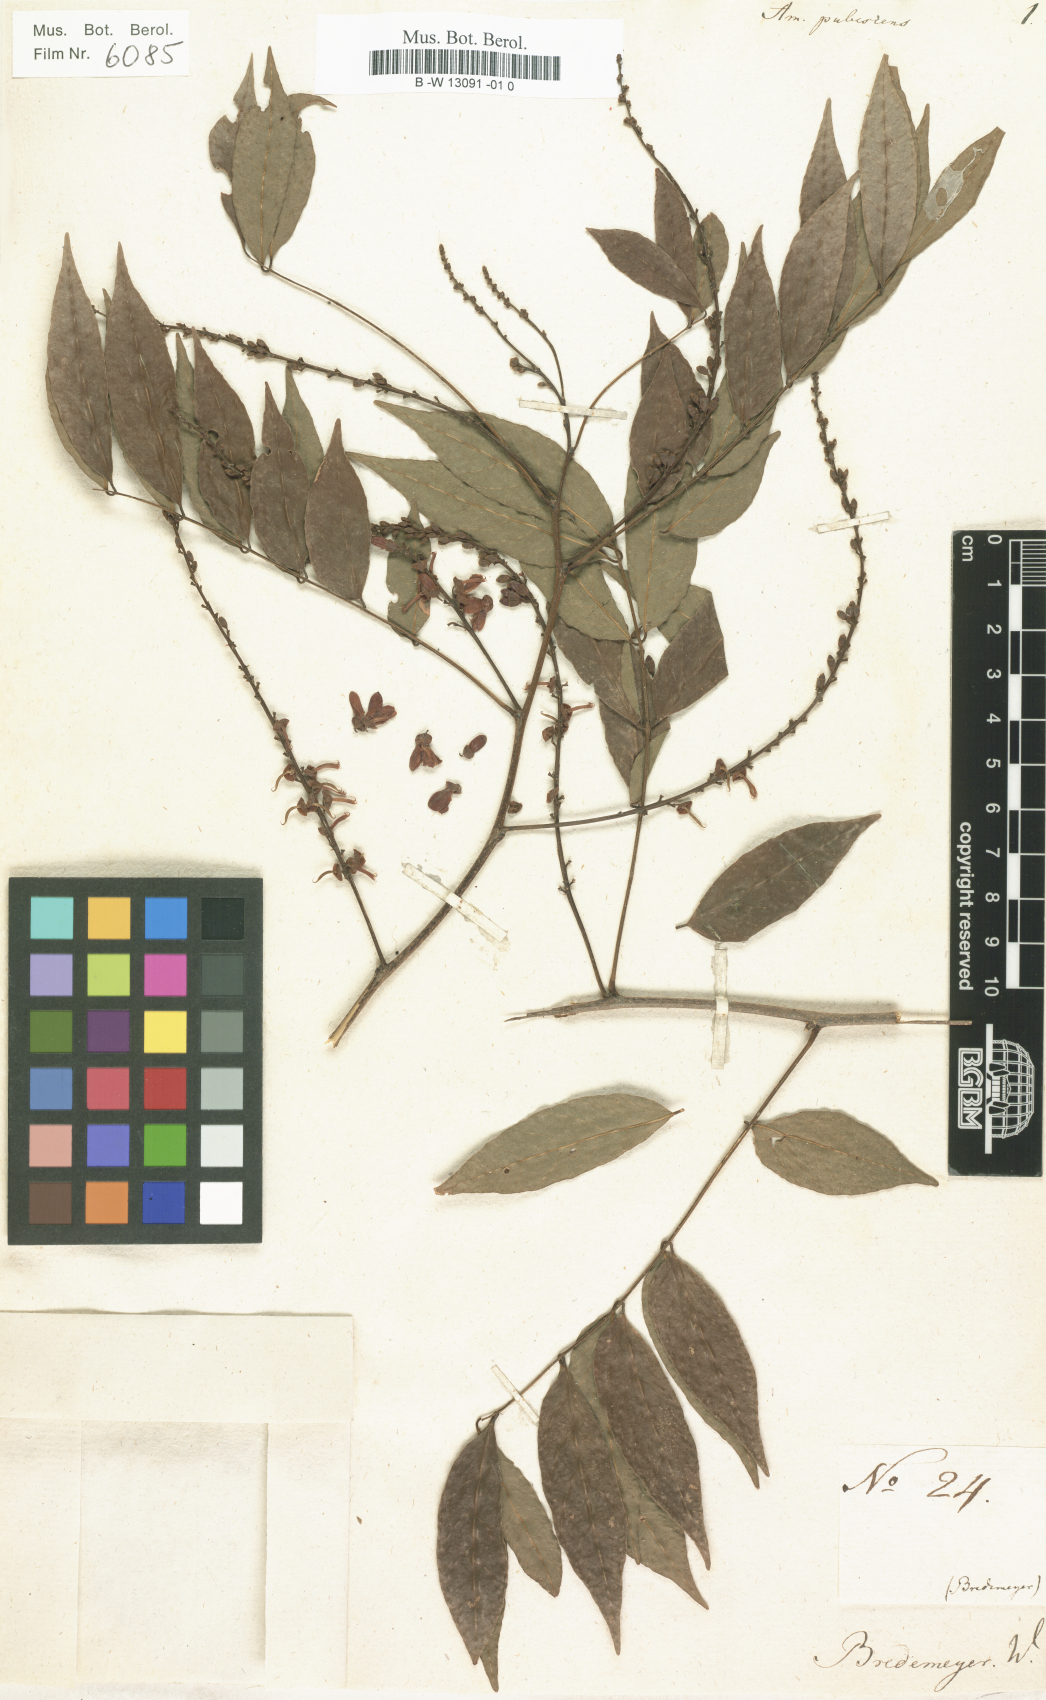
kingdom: Plantae
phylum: Tracheophyta
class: Magnoliopsida
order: Fabales
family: Fabaceae
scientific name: Fabaceae
